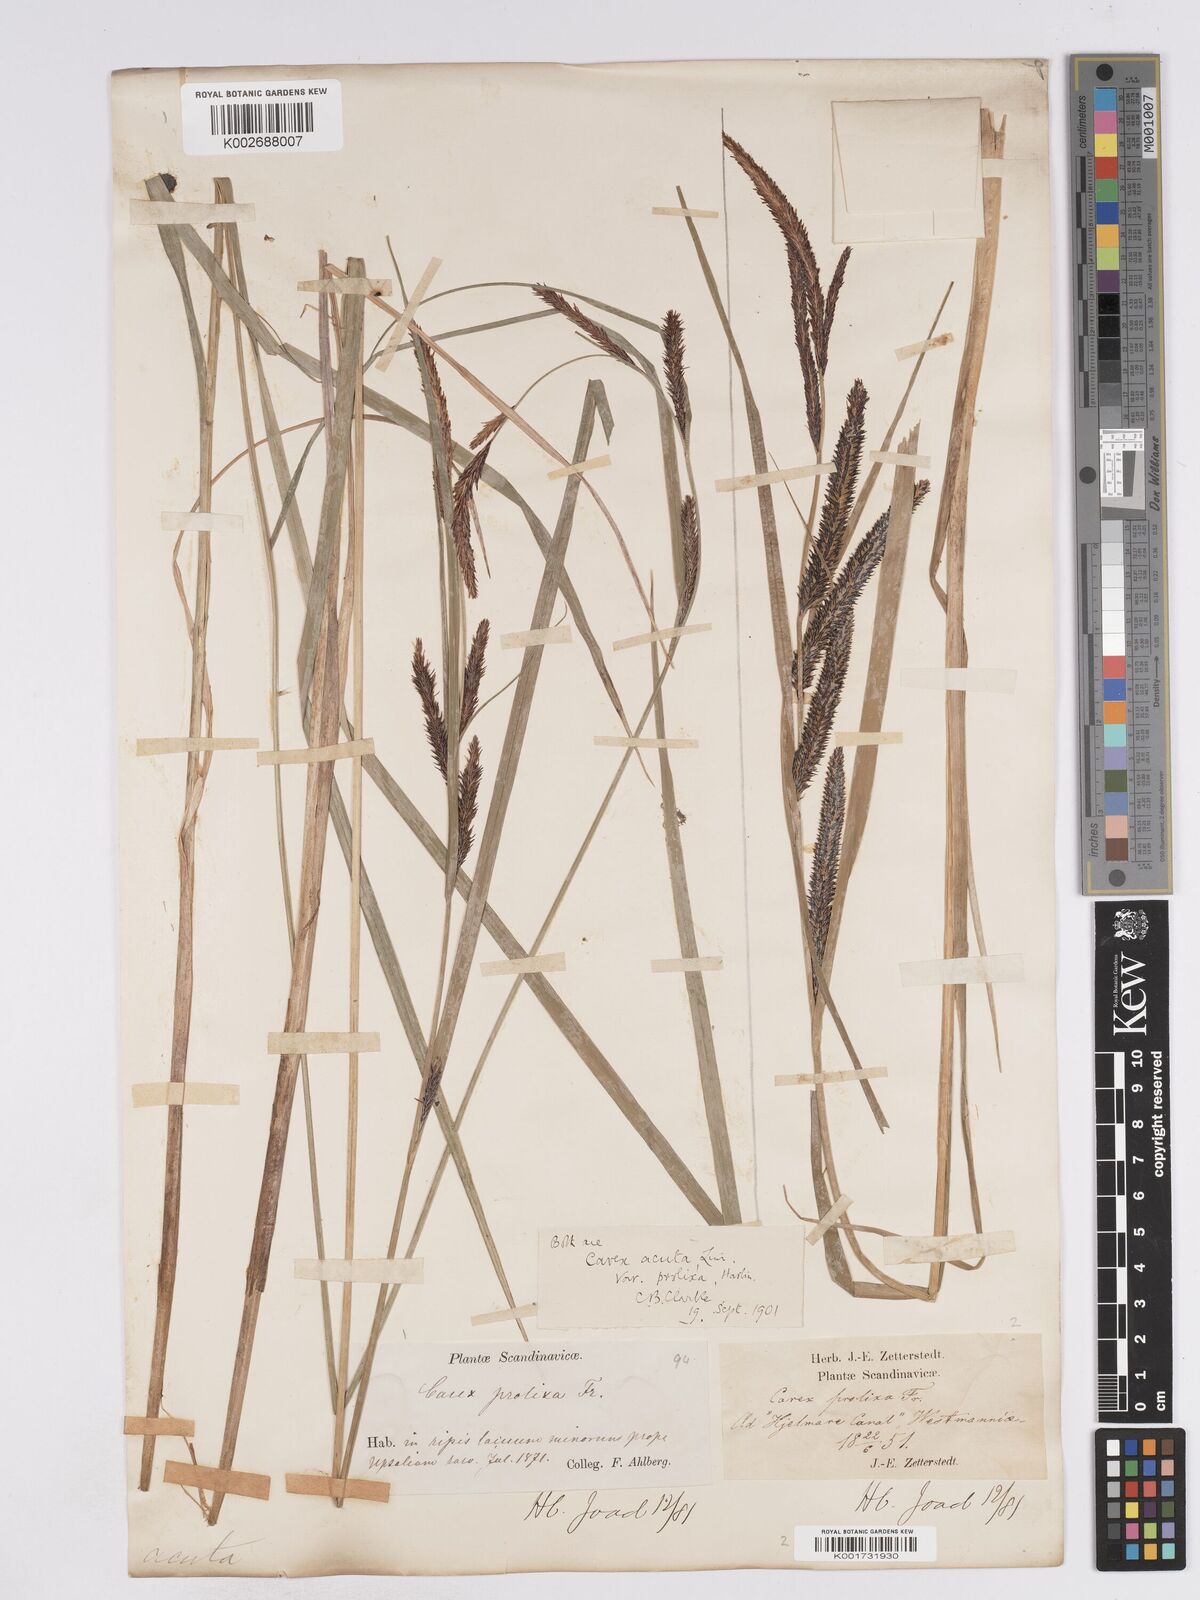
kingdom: Plantae
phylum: Tracheophyta
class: Liliopsida
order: Poales
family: Cyperaceae
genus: Carex
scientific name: Carex acuta
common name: Slender tufted-sedge
